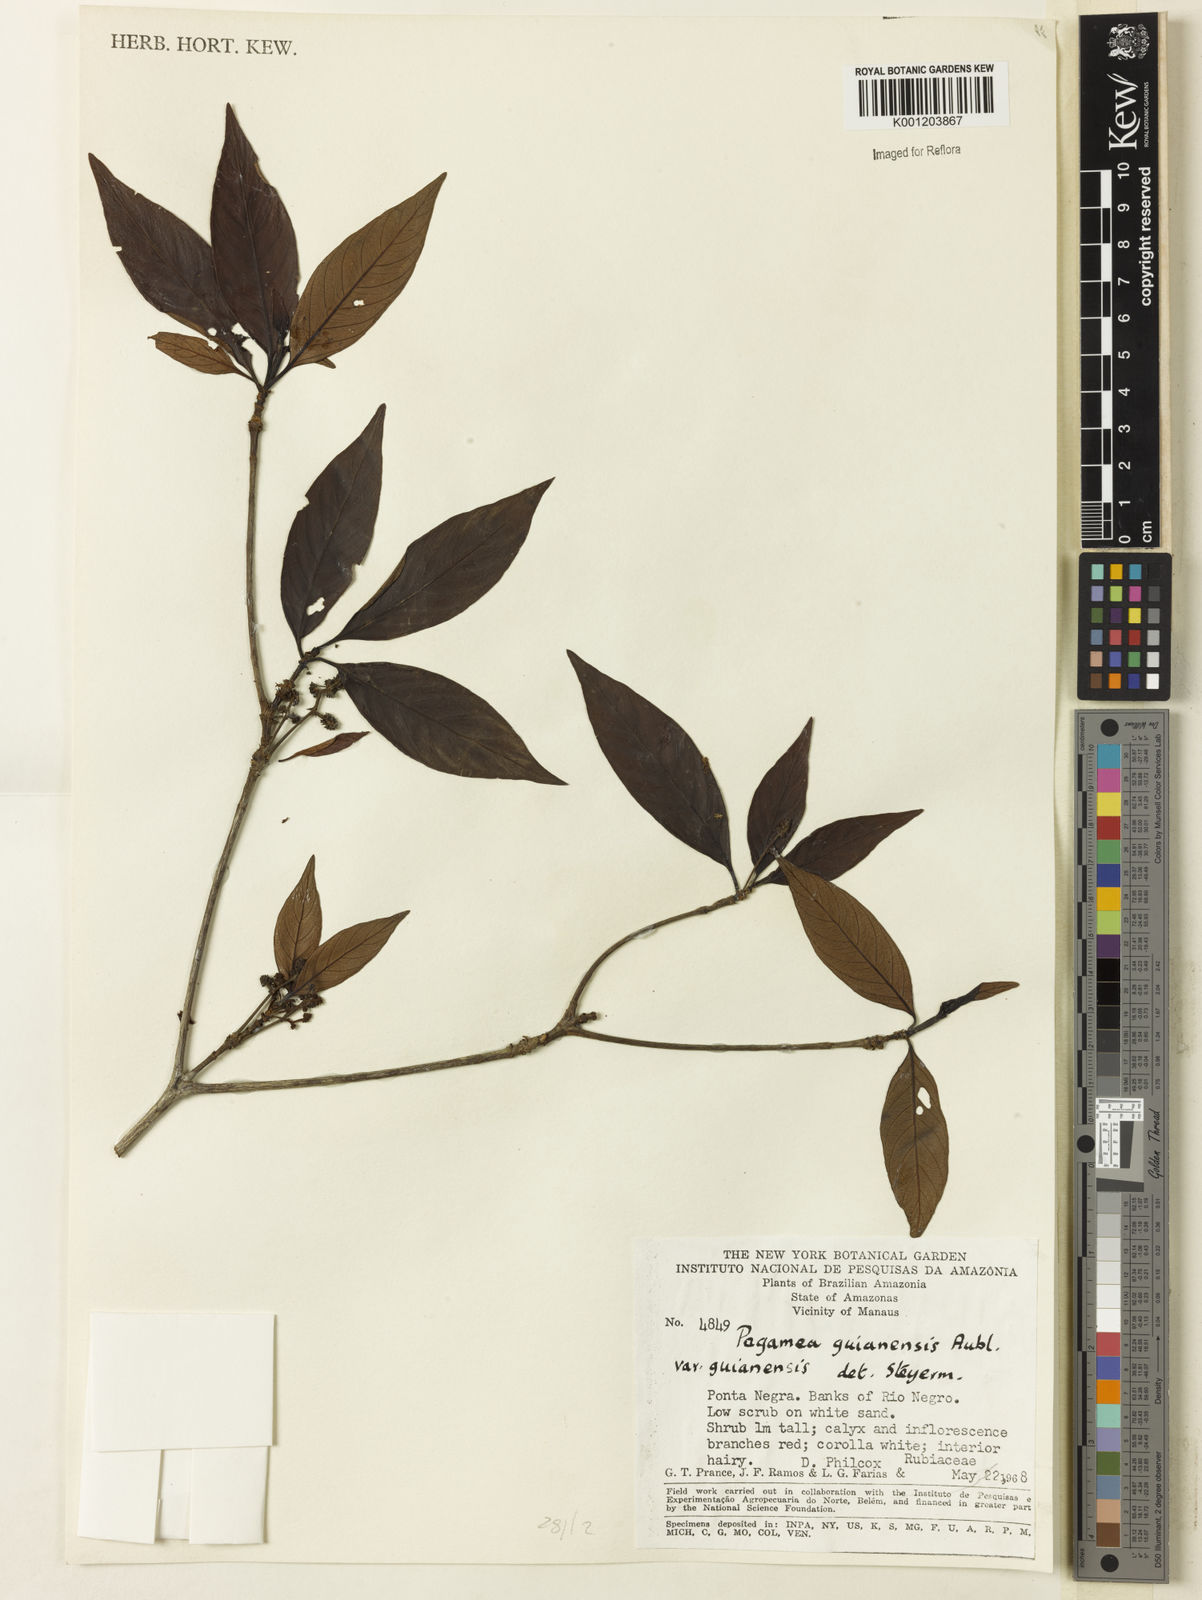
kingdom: Plantae
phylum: Tracheophyta
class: Magnoliopsida
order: Gentianales
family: Rubiaceae
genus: Pagamea
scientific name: Pagamea guianensis
